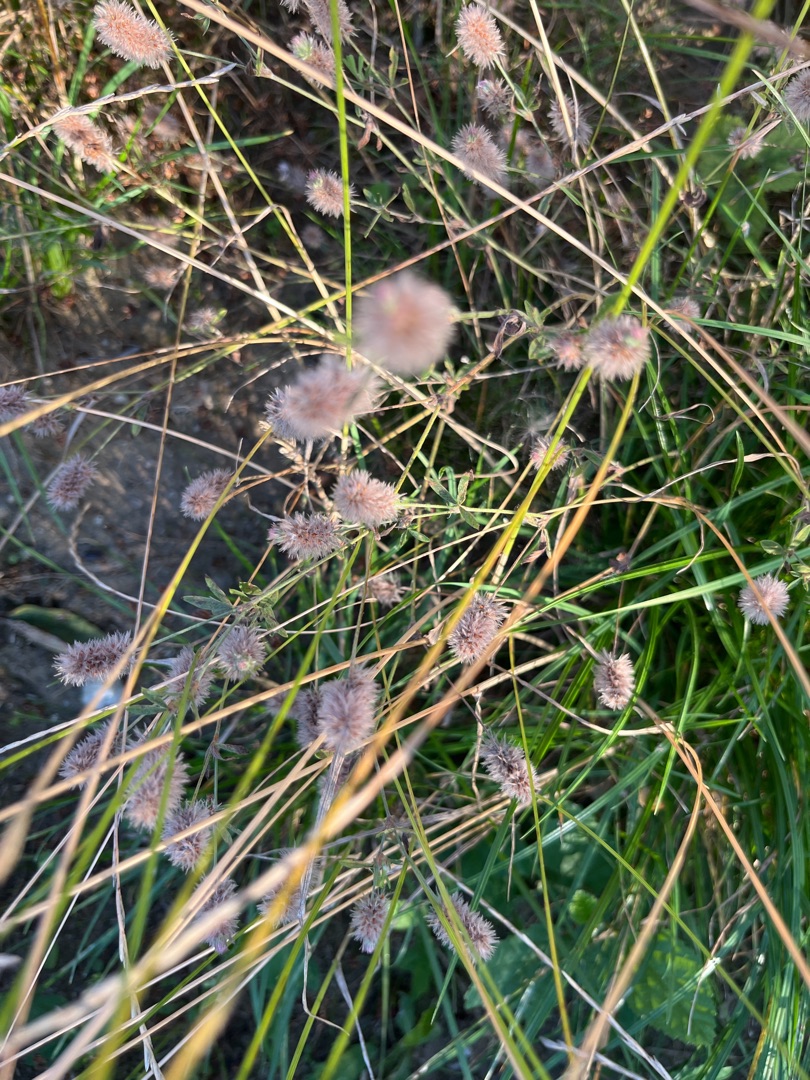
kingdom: Plantae
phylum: Tracheophyta
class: Magnoliopsida
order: Fabales
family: Fabaceae
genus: Trifolium
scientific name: Trifolium arvense
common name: Hare-kløver
